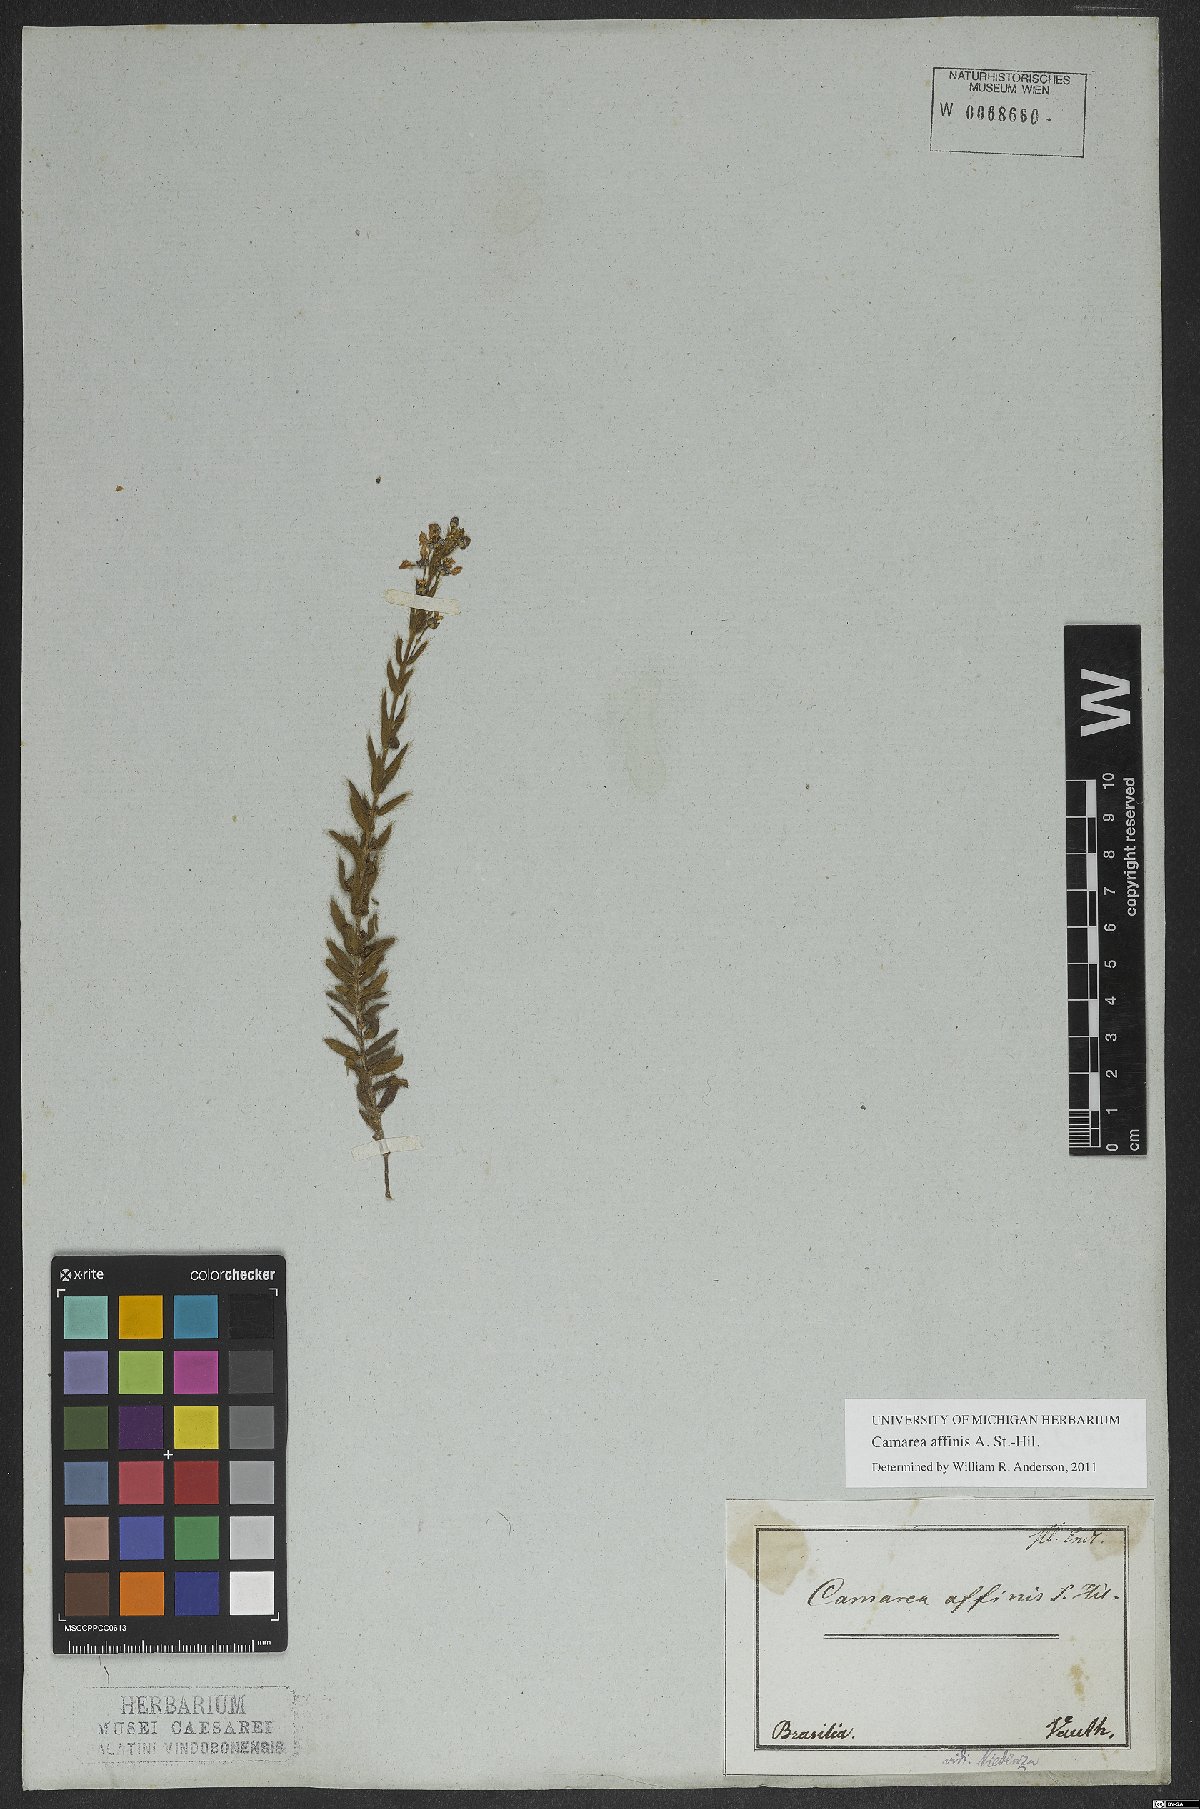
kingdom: Plantae
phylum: Tracheophyta
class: Magnoliopsida
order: Malpighiales
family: Malpighiaceae
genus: Camarea
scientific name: Camarea affinis
